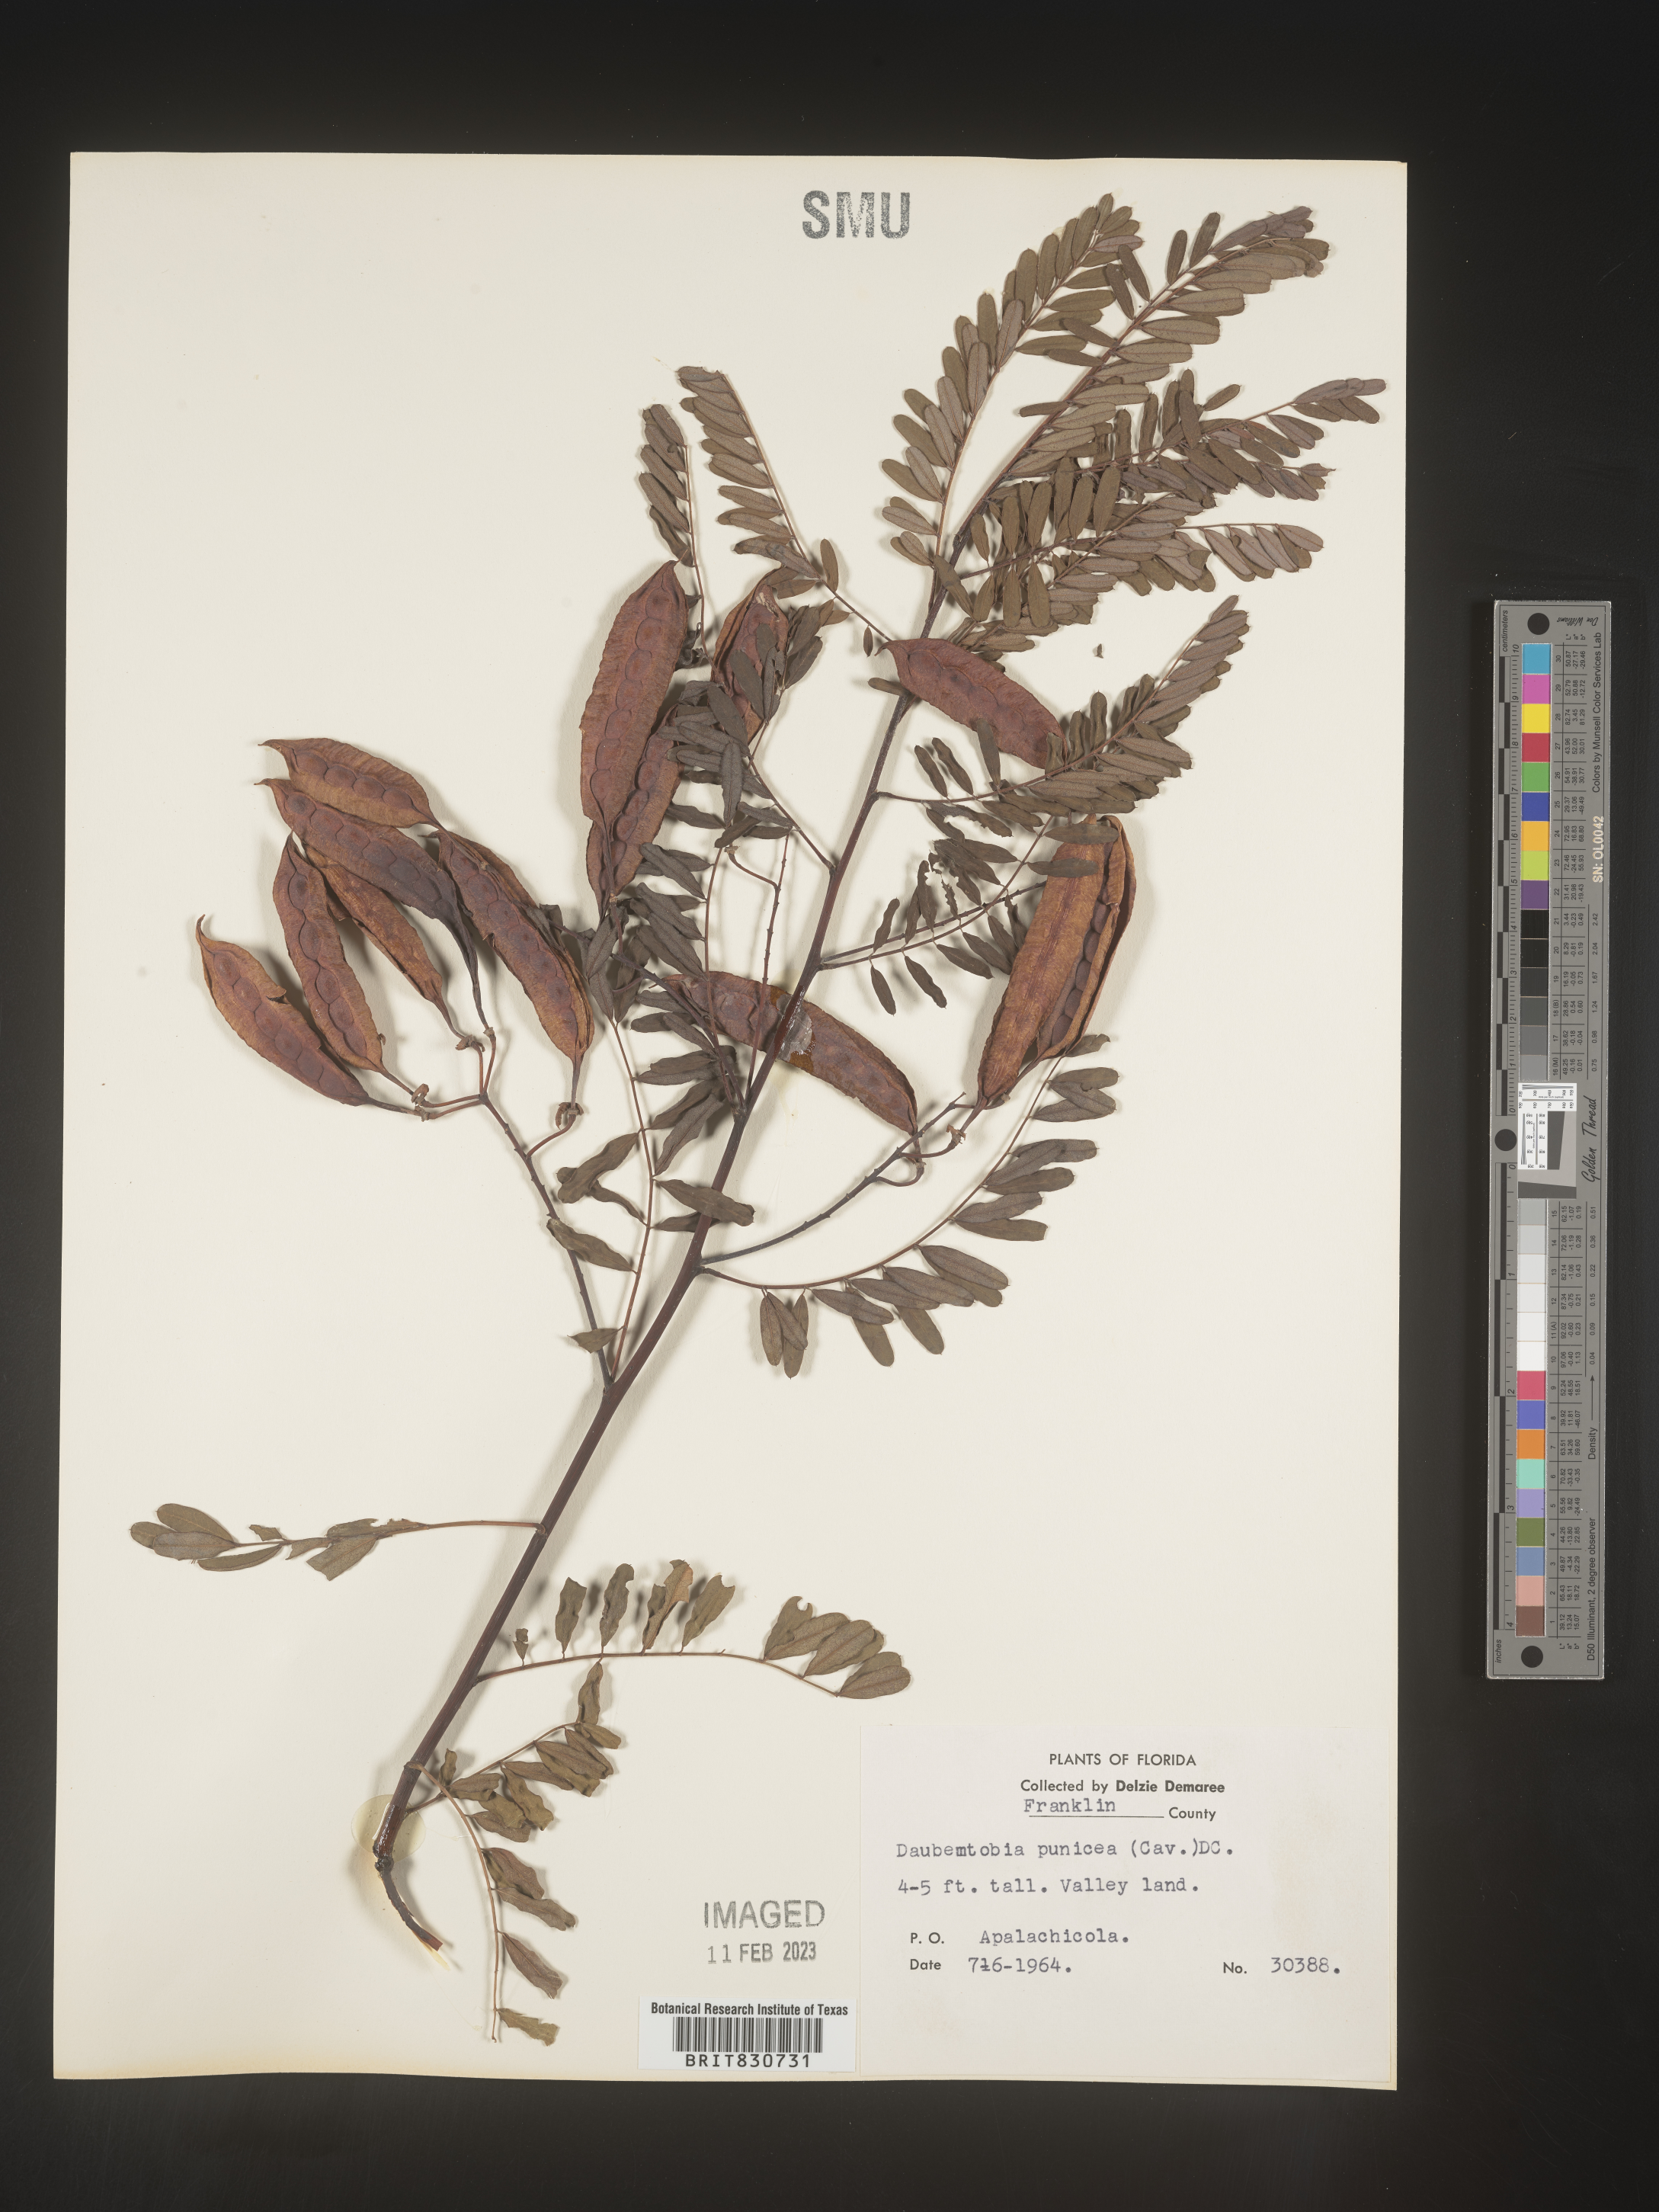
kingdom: Plantae
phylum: Tracheophyta
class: Magnoliopsida
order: Fabales
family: Fabaceae
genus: Sesbania
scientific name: Sesbania punicea
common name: Rattlebox
